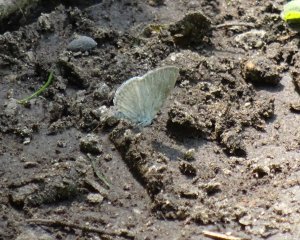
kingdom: Animalia
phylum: Arthropoda
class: Insecta
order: Lepidoptera
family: Lycaenidae
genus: Cyaniris
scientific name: Cyaniris neglecta
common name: Summer Azure
